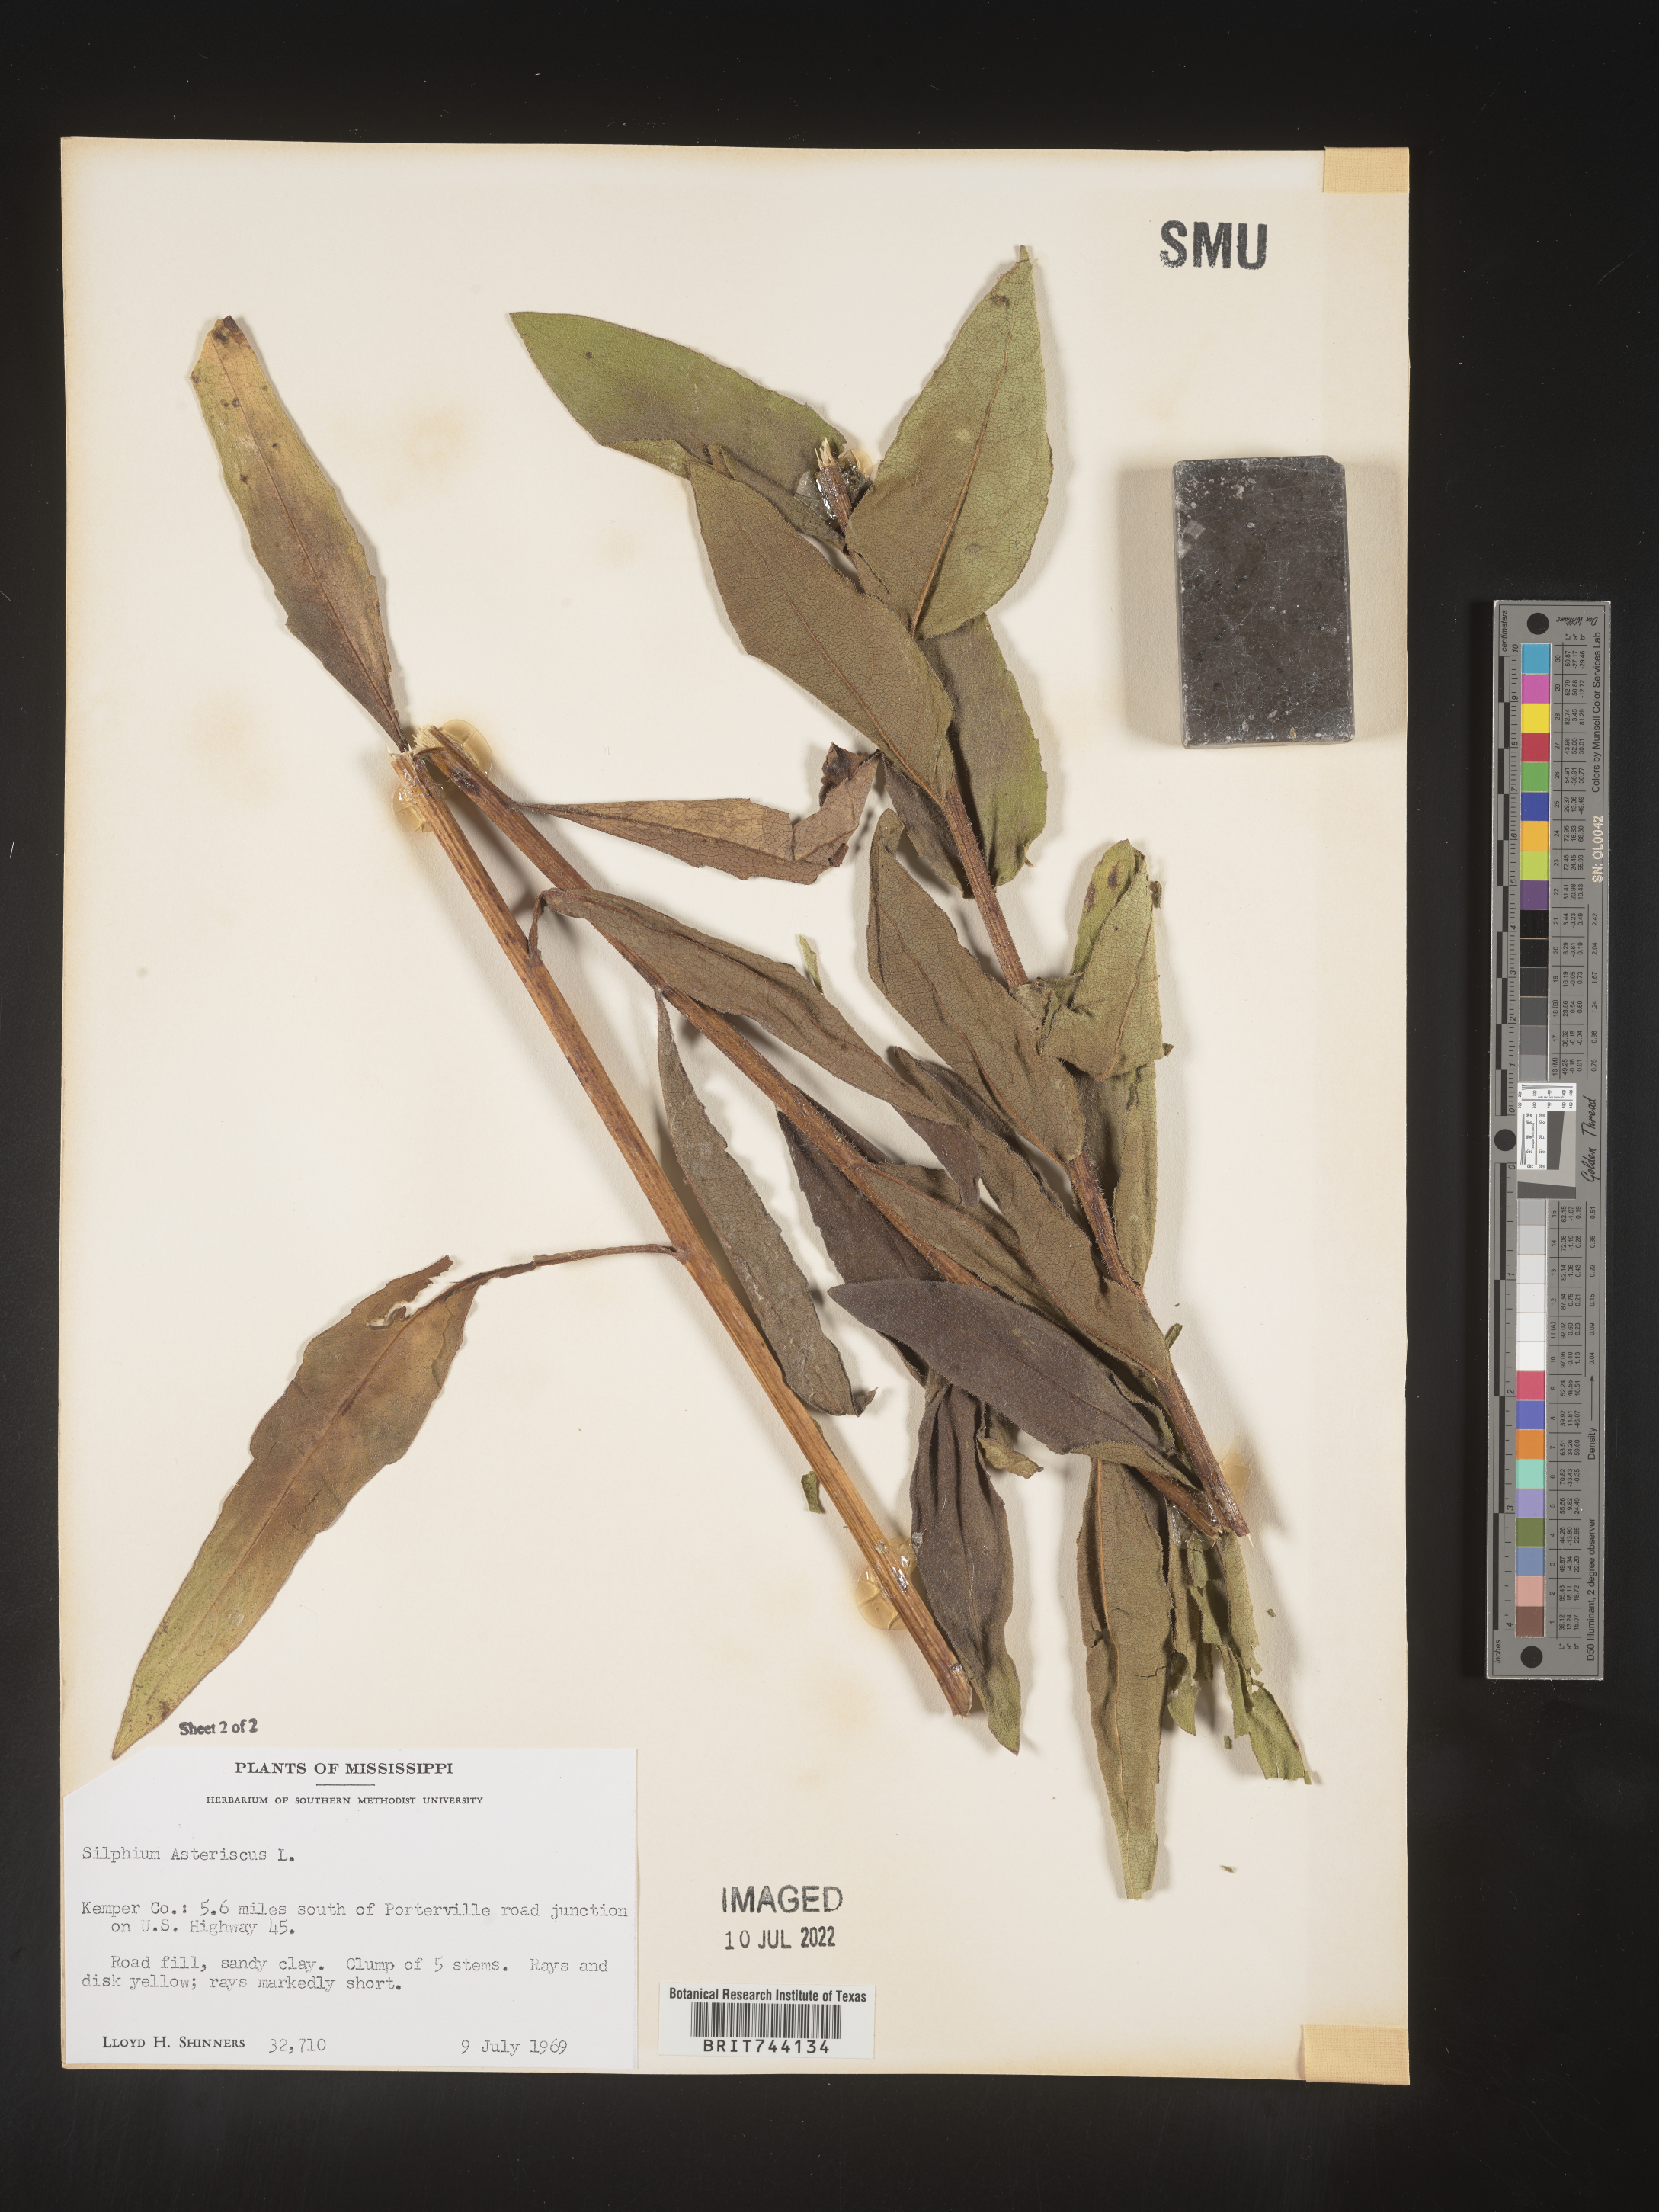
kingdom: Plantae
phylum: Tracheophyta
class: Magnoliopsida
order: Asterales
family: Asteraceae
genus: Silphium
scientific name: Silphium asteriscus
